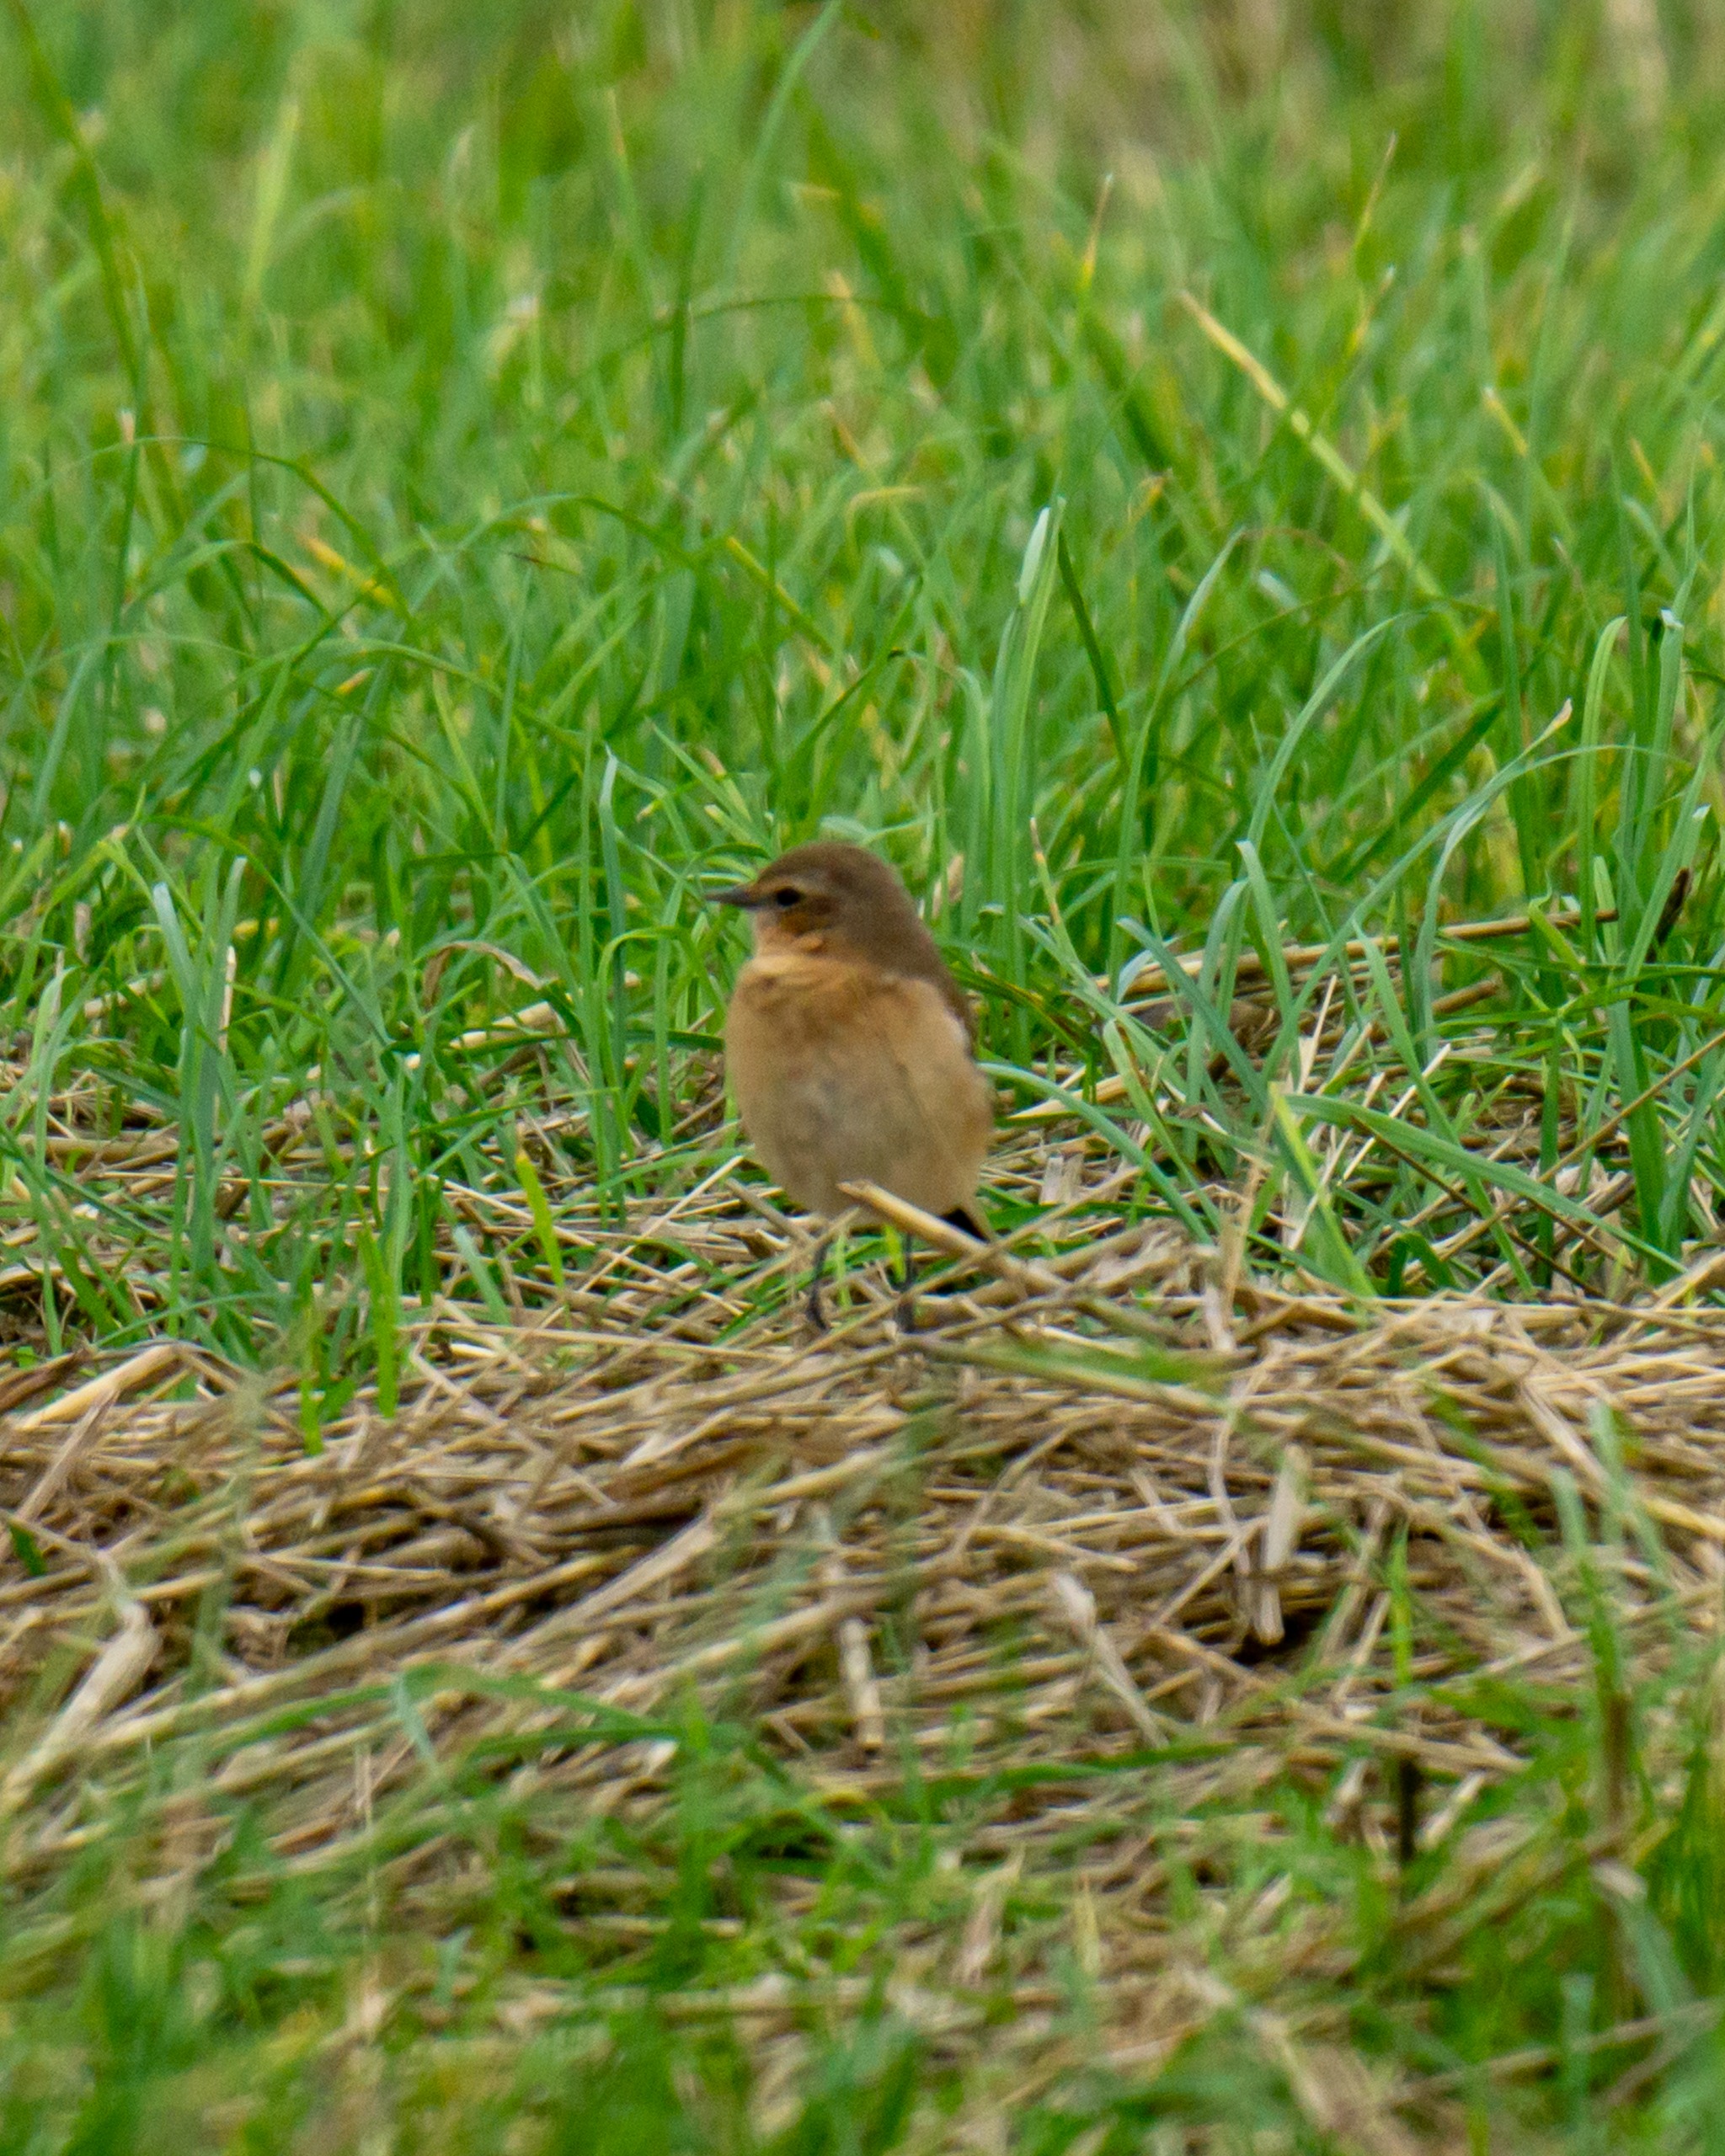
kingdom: Animalia
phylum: Chordata
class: Aves
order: Passeriformes
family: Muscicapidae
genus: Oenanthe
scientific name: Oenanthe oenanthe
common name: Stenpikker
